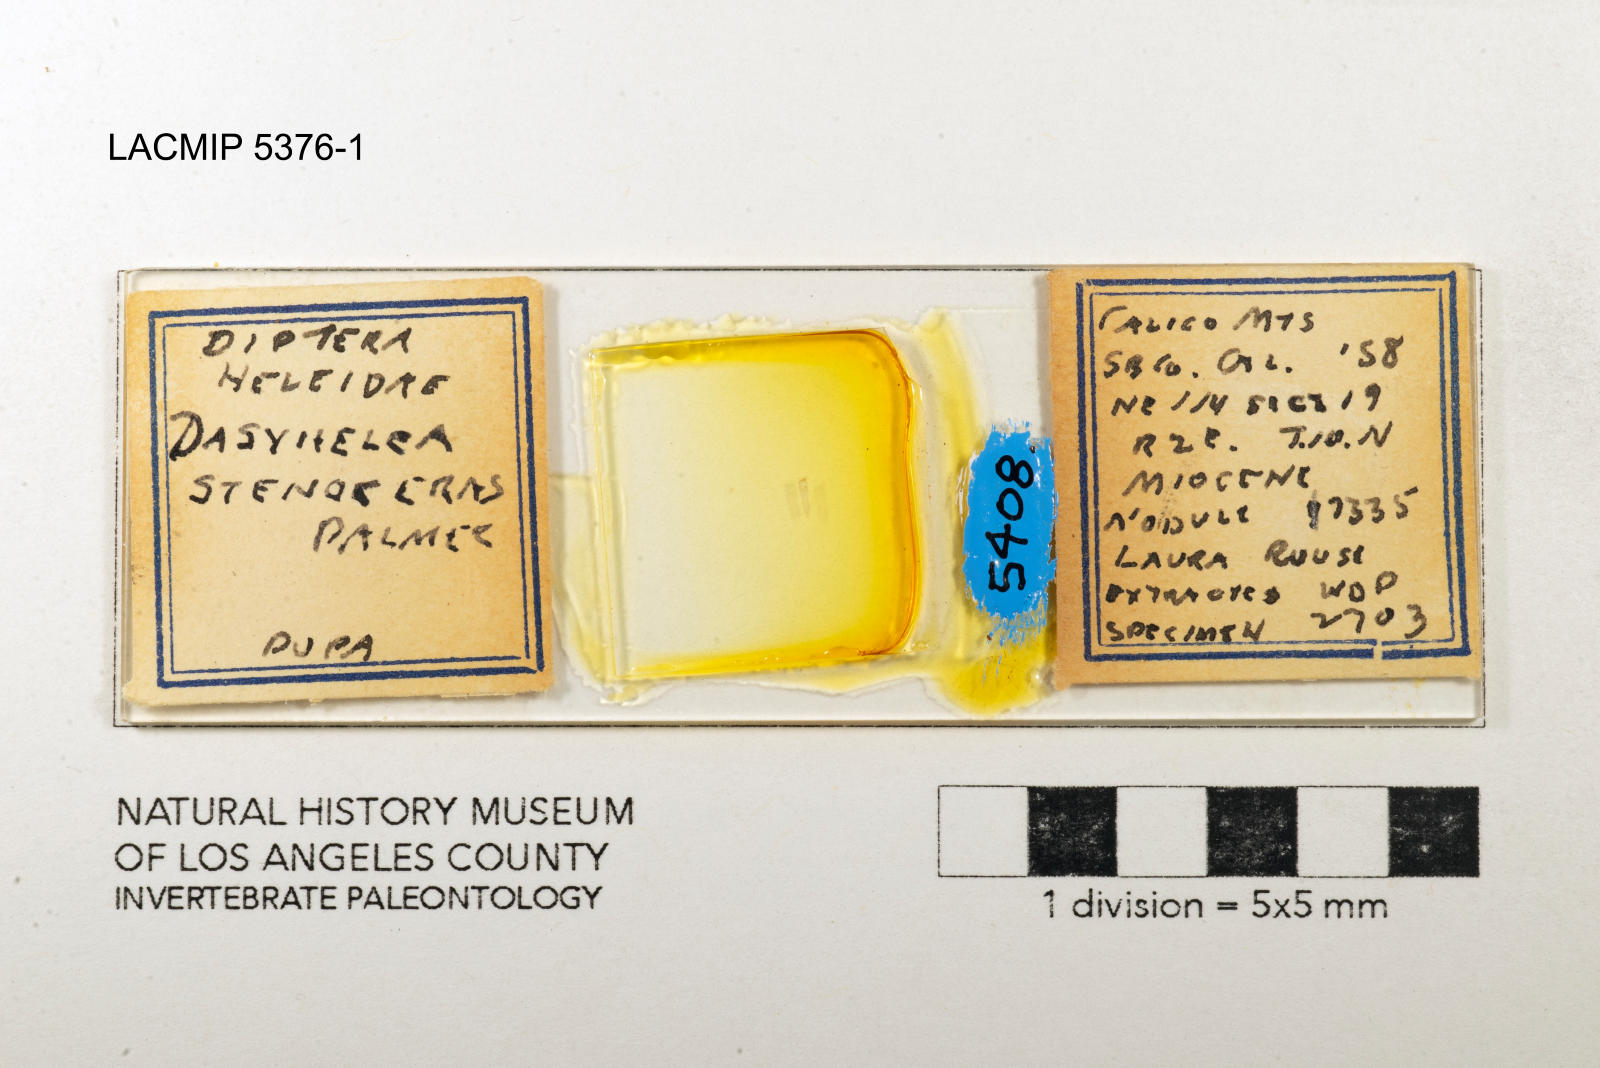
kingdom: Animalia
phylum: Arthropoda
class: Insecta
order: Diptera
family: Ceratopogonidae
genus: Dasyhelea
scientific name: Dasyhelea stenoceras
